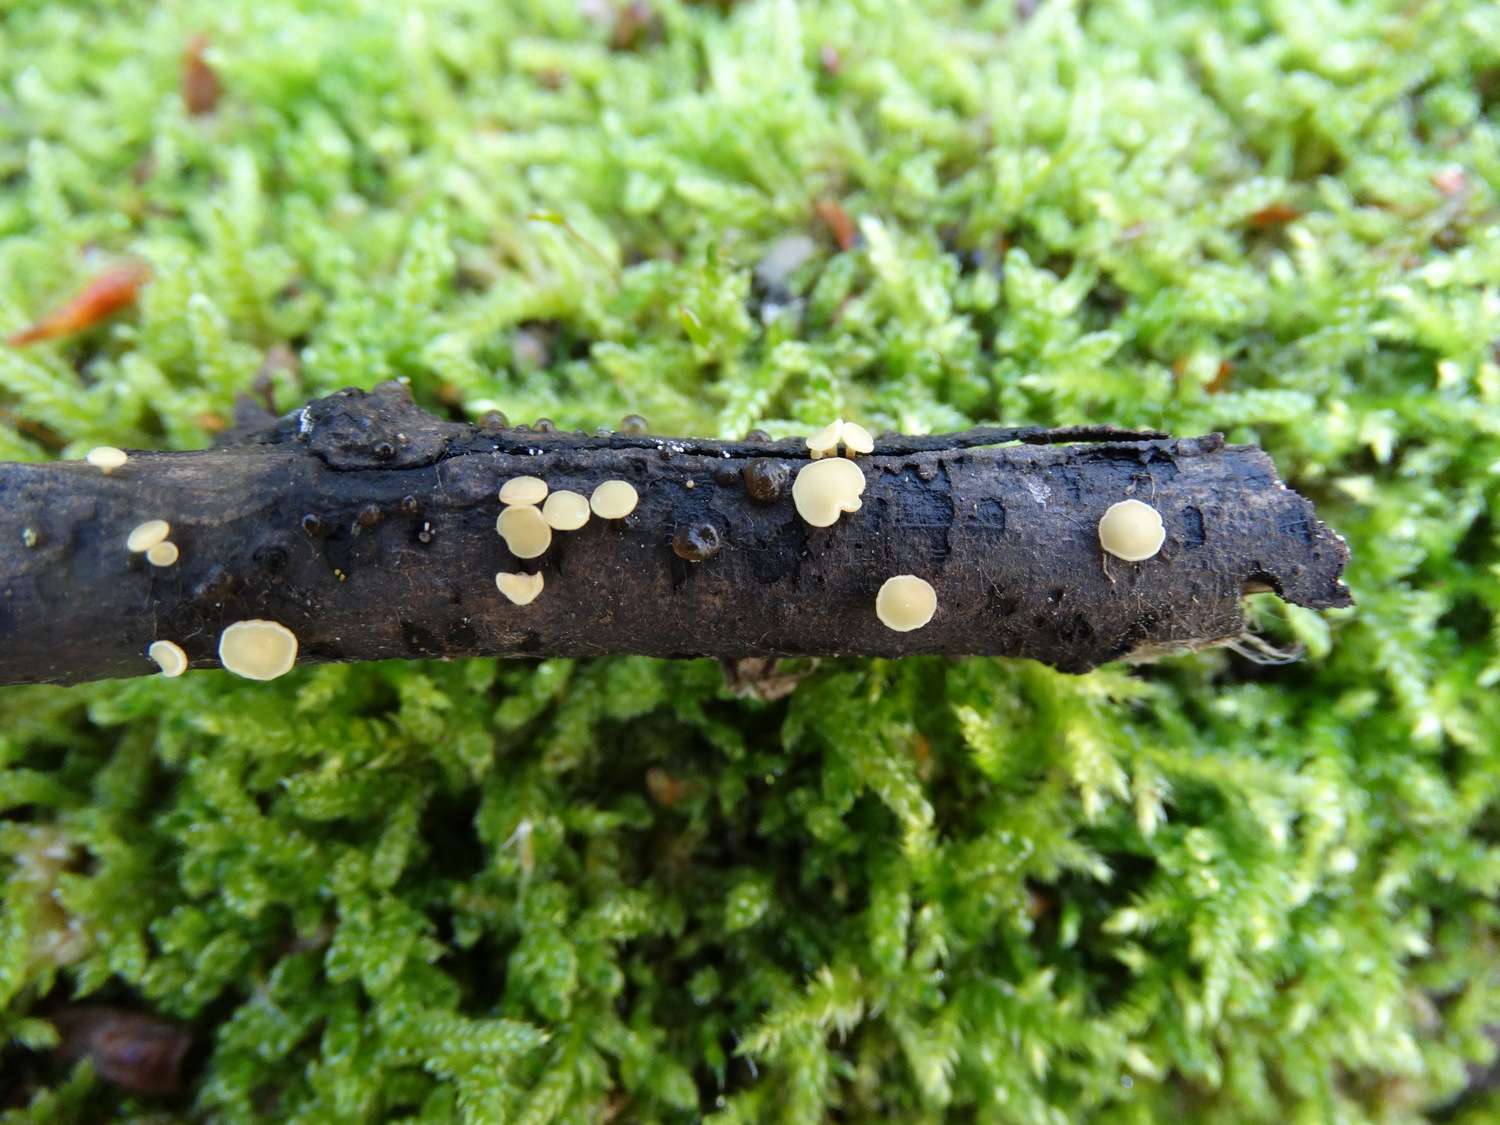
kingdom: Fungi
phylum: Ascomycota
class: Leotiomycetes
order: Helotiales
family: Helotiaceae
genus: Hymenoscyphus
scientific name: Hymenoscyphus
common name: stilkskive
